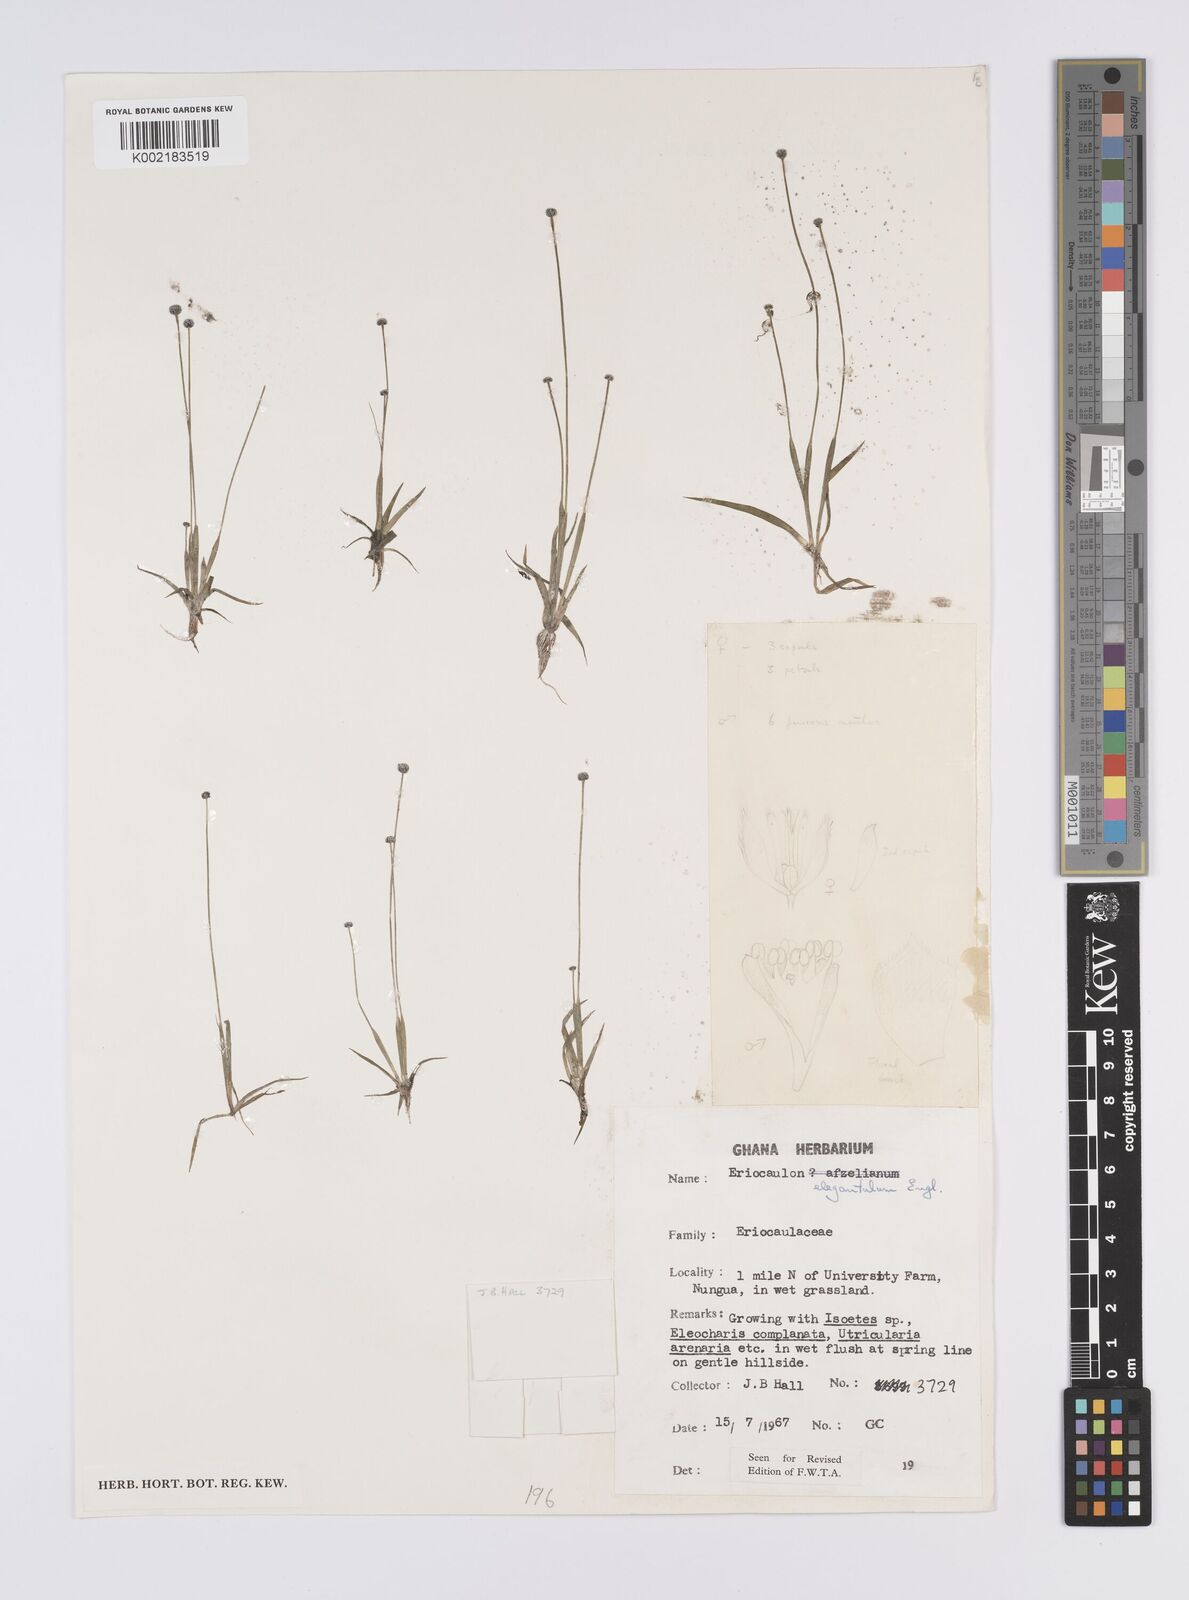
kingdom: Plantae
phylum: Tracheophyta
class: Liliopsida
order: Poales
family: Eriocaulaceae
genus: Eriocaulon
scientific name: Eriocaulon elegantulum
